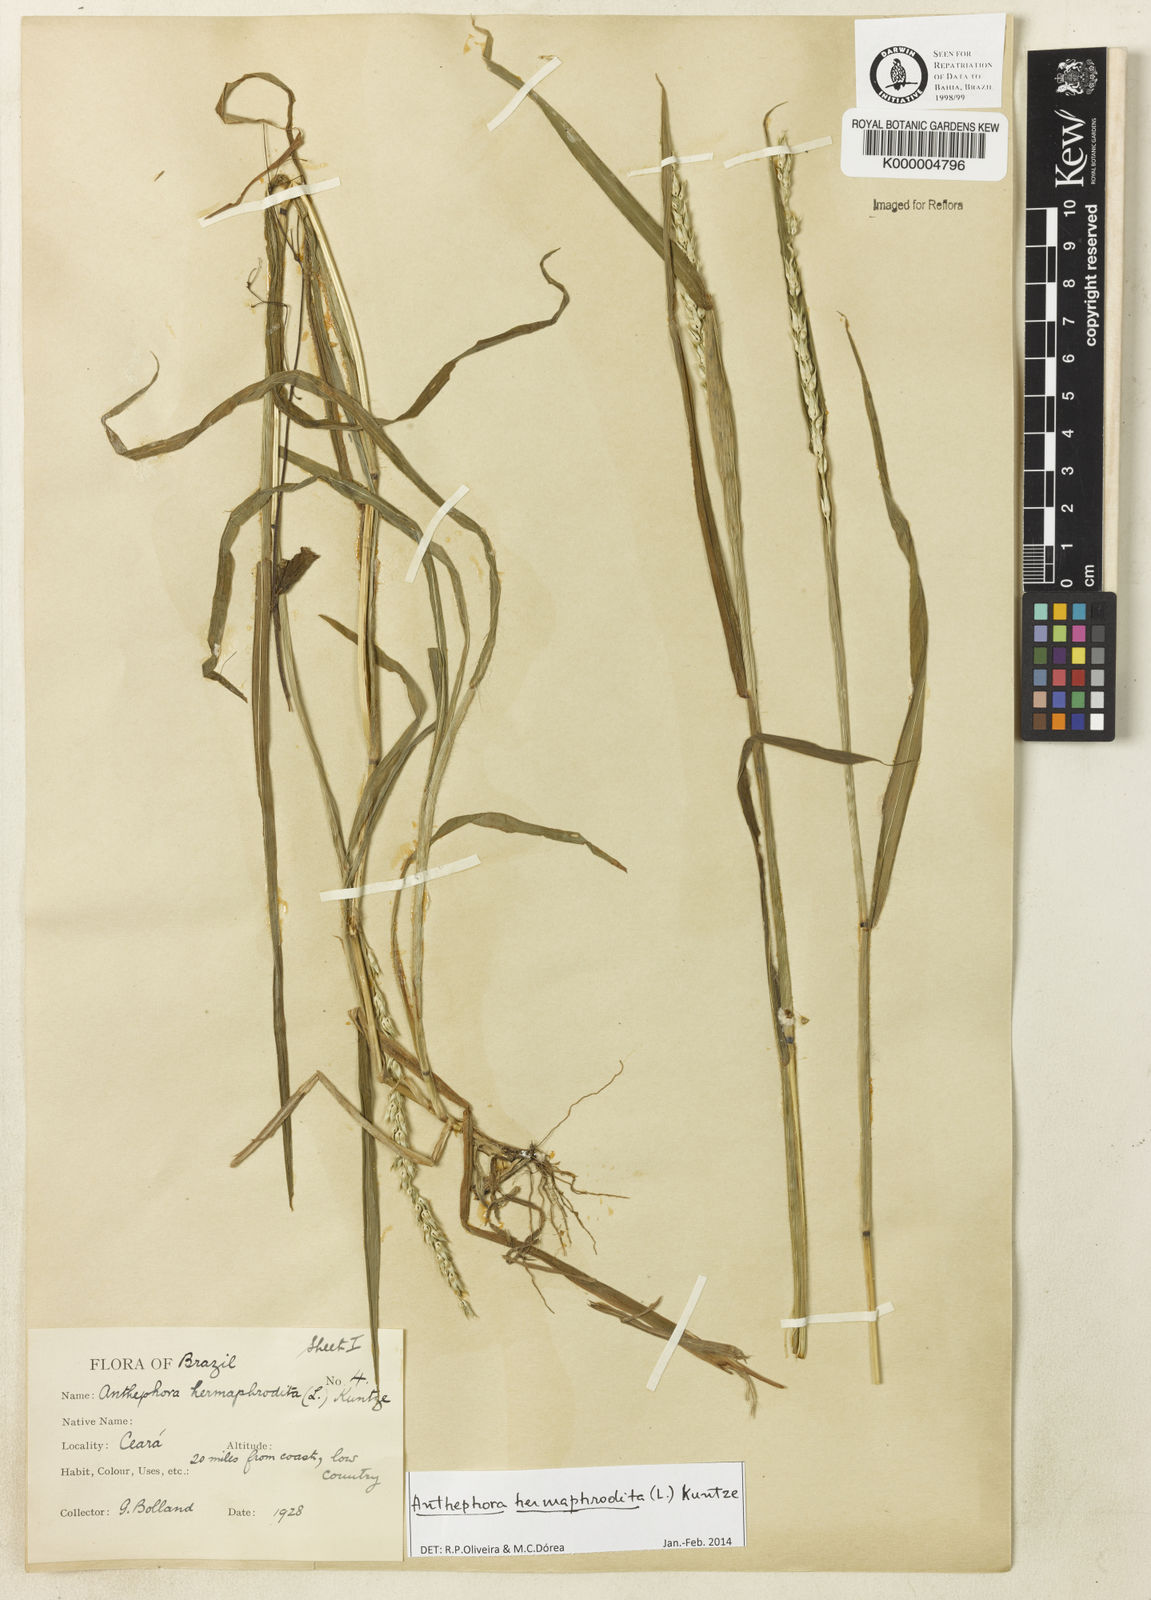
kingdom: Plantae
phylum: Tracheophyta
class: Liliopsida
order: Poales
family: Poaceae
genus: Anthephora
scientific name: Anthephora hermaphrodita
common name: Oldfield grass
